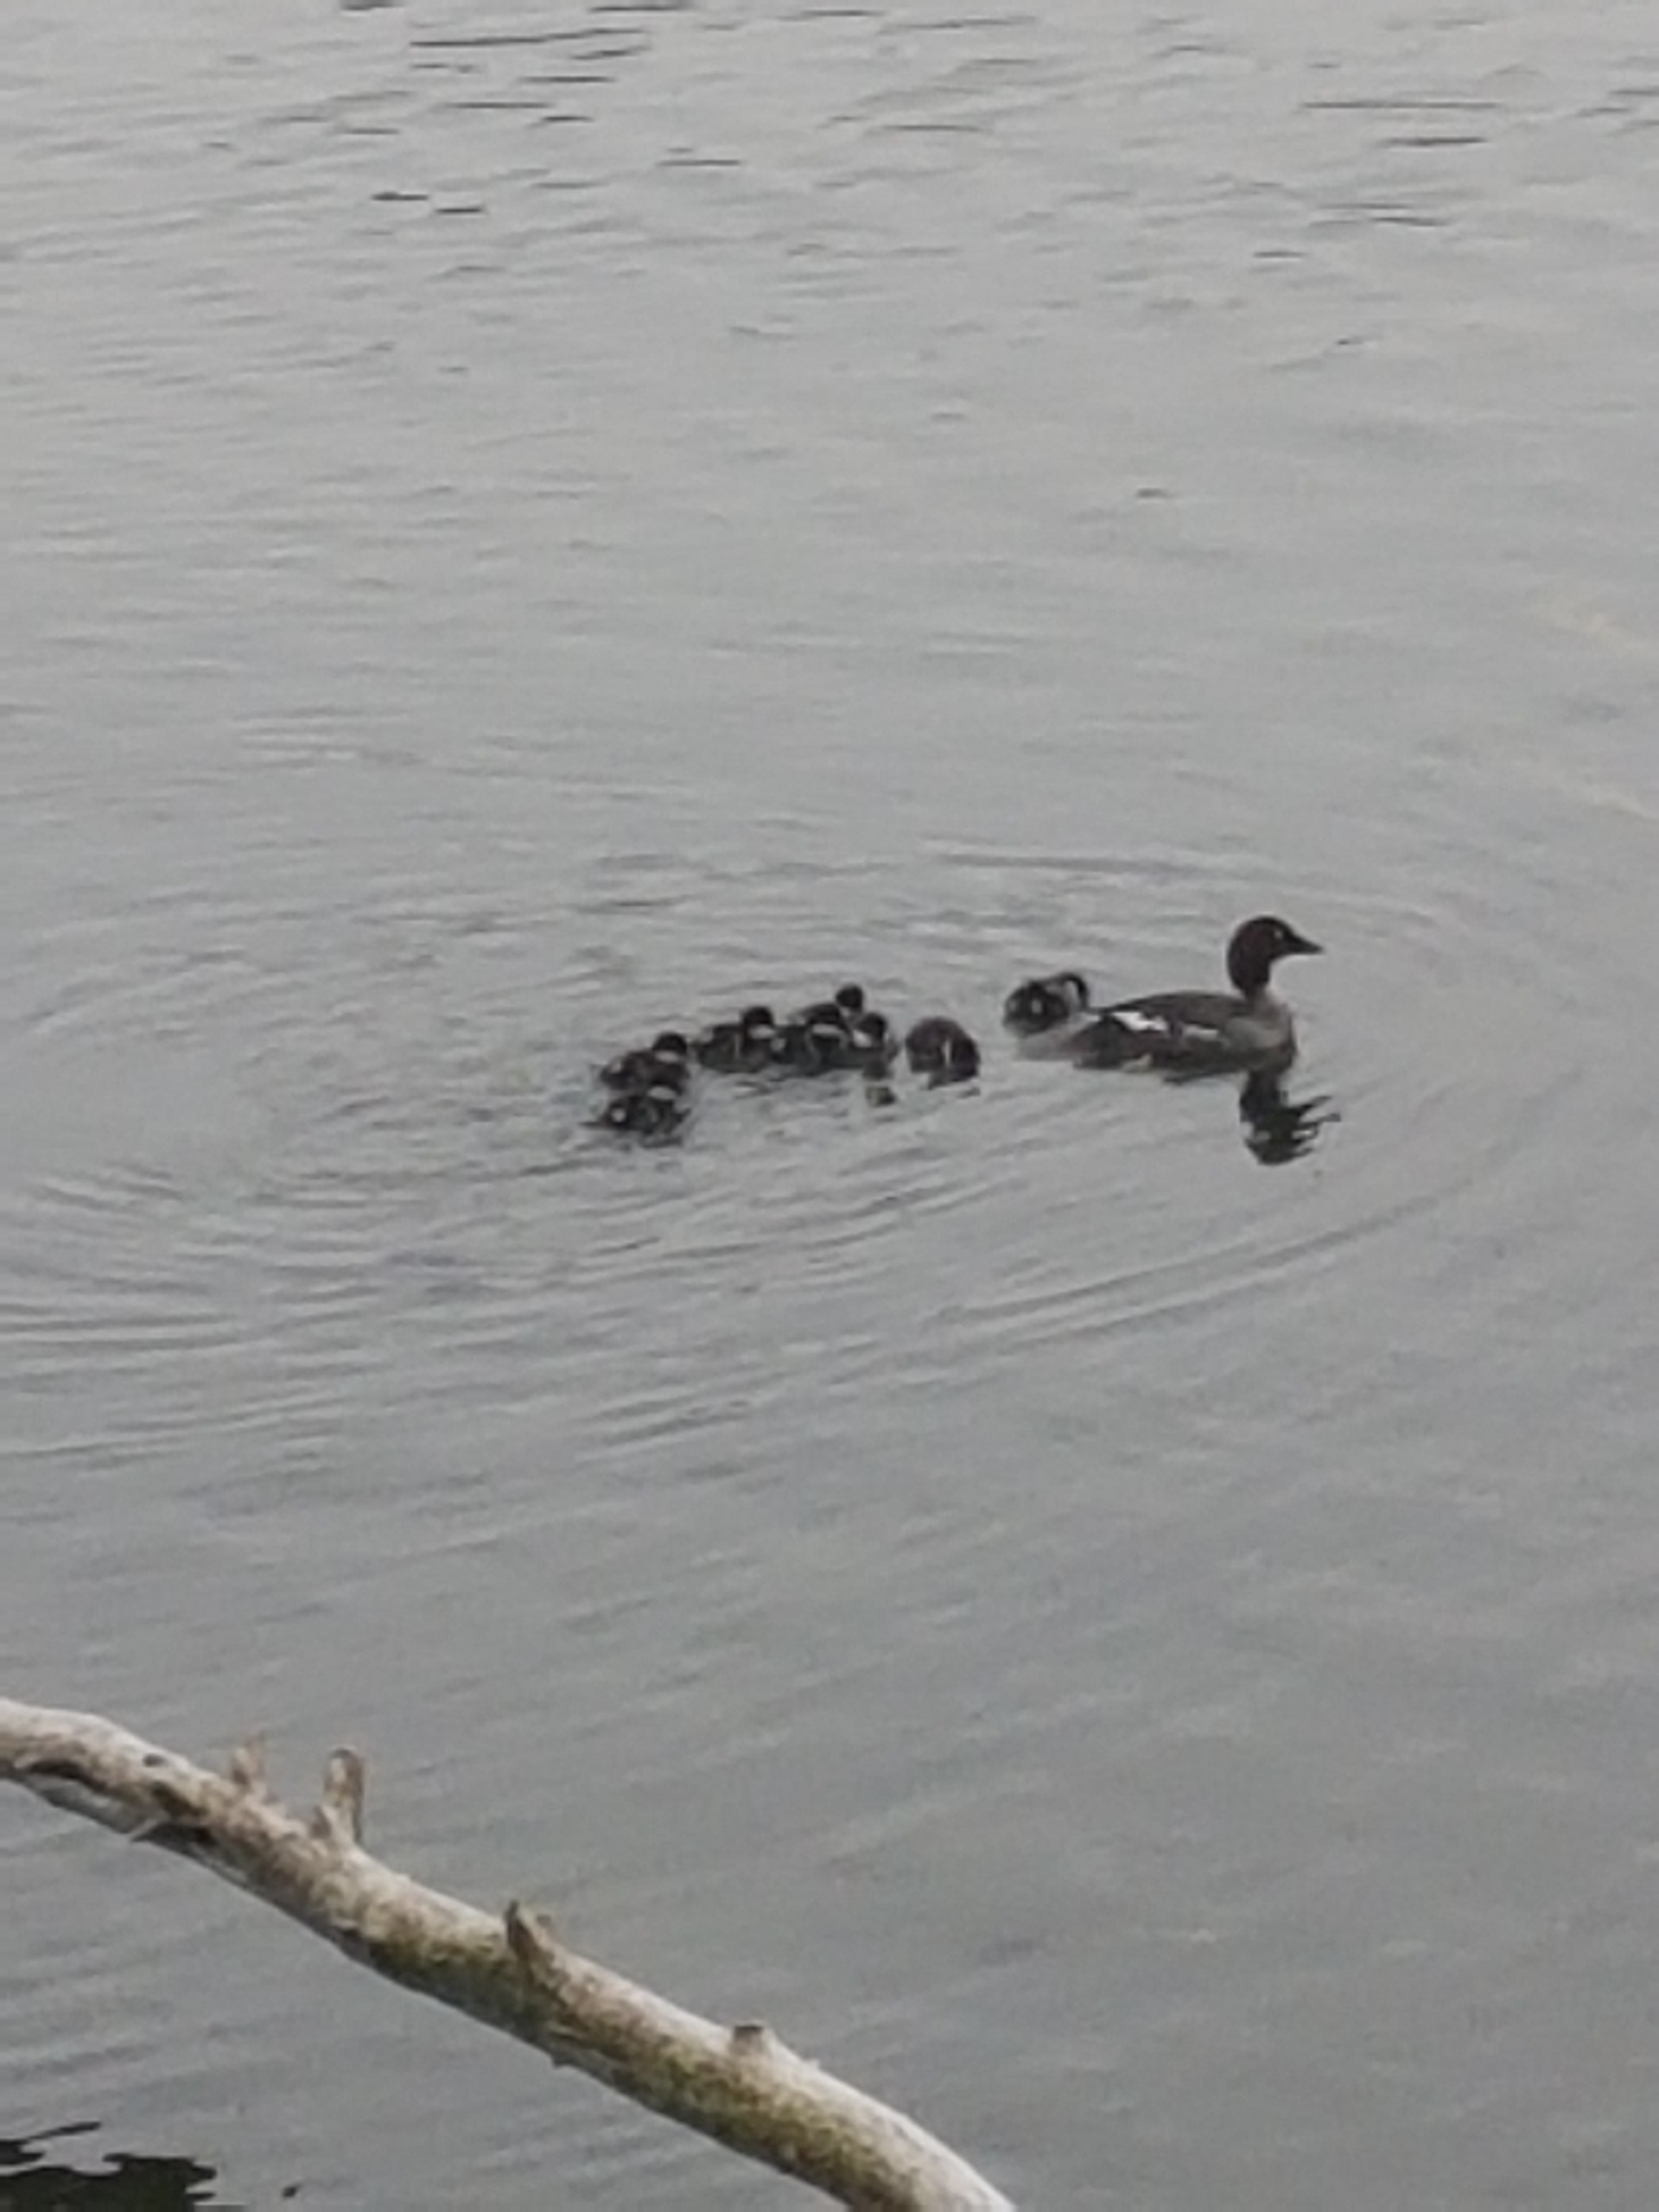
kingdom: Animalia
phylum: Chordata
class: Aves
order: Anseriformes
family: Anatidae
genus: Bucephala
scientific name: Bucephala clangula
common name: Hvinand
